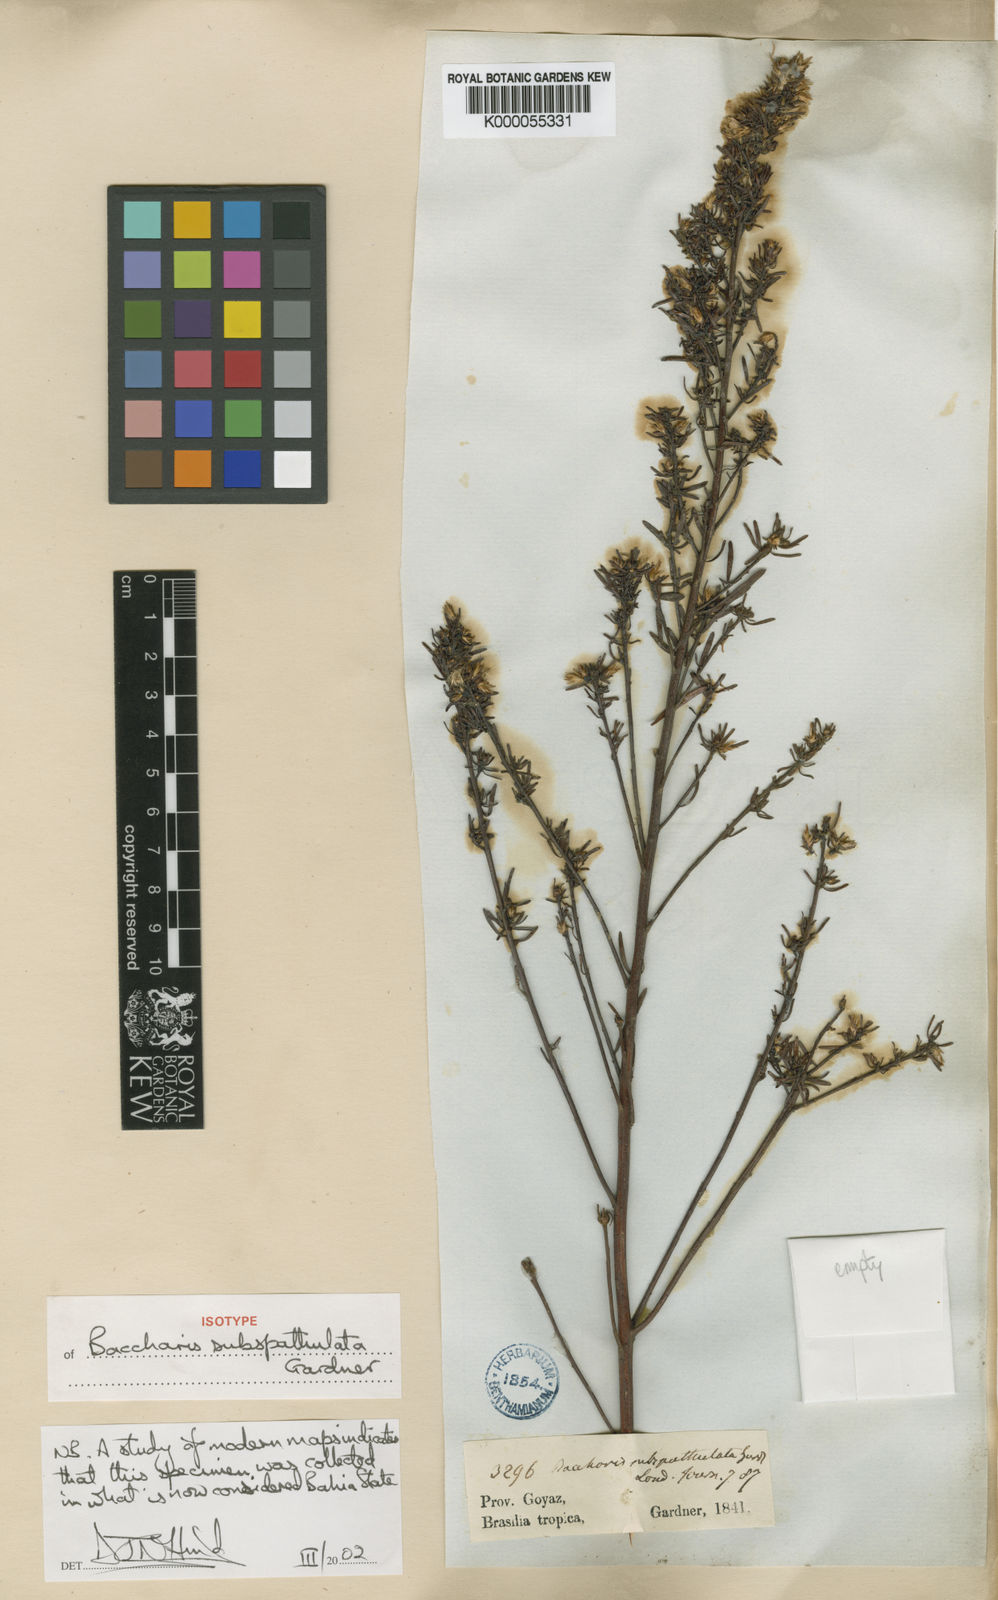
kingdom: Plantae
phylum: Tracheophyta
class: Magnoliopsida
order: Asterales
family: Asteraceae
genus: Baccharis
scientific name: Baccharis pseudotenuifolia
